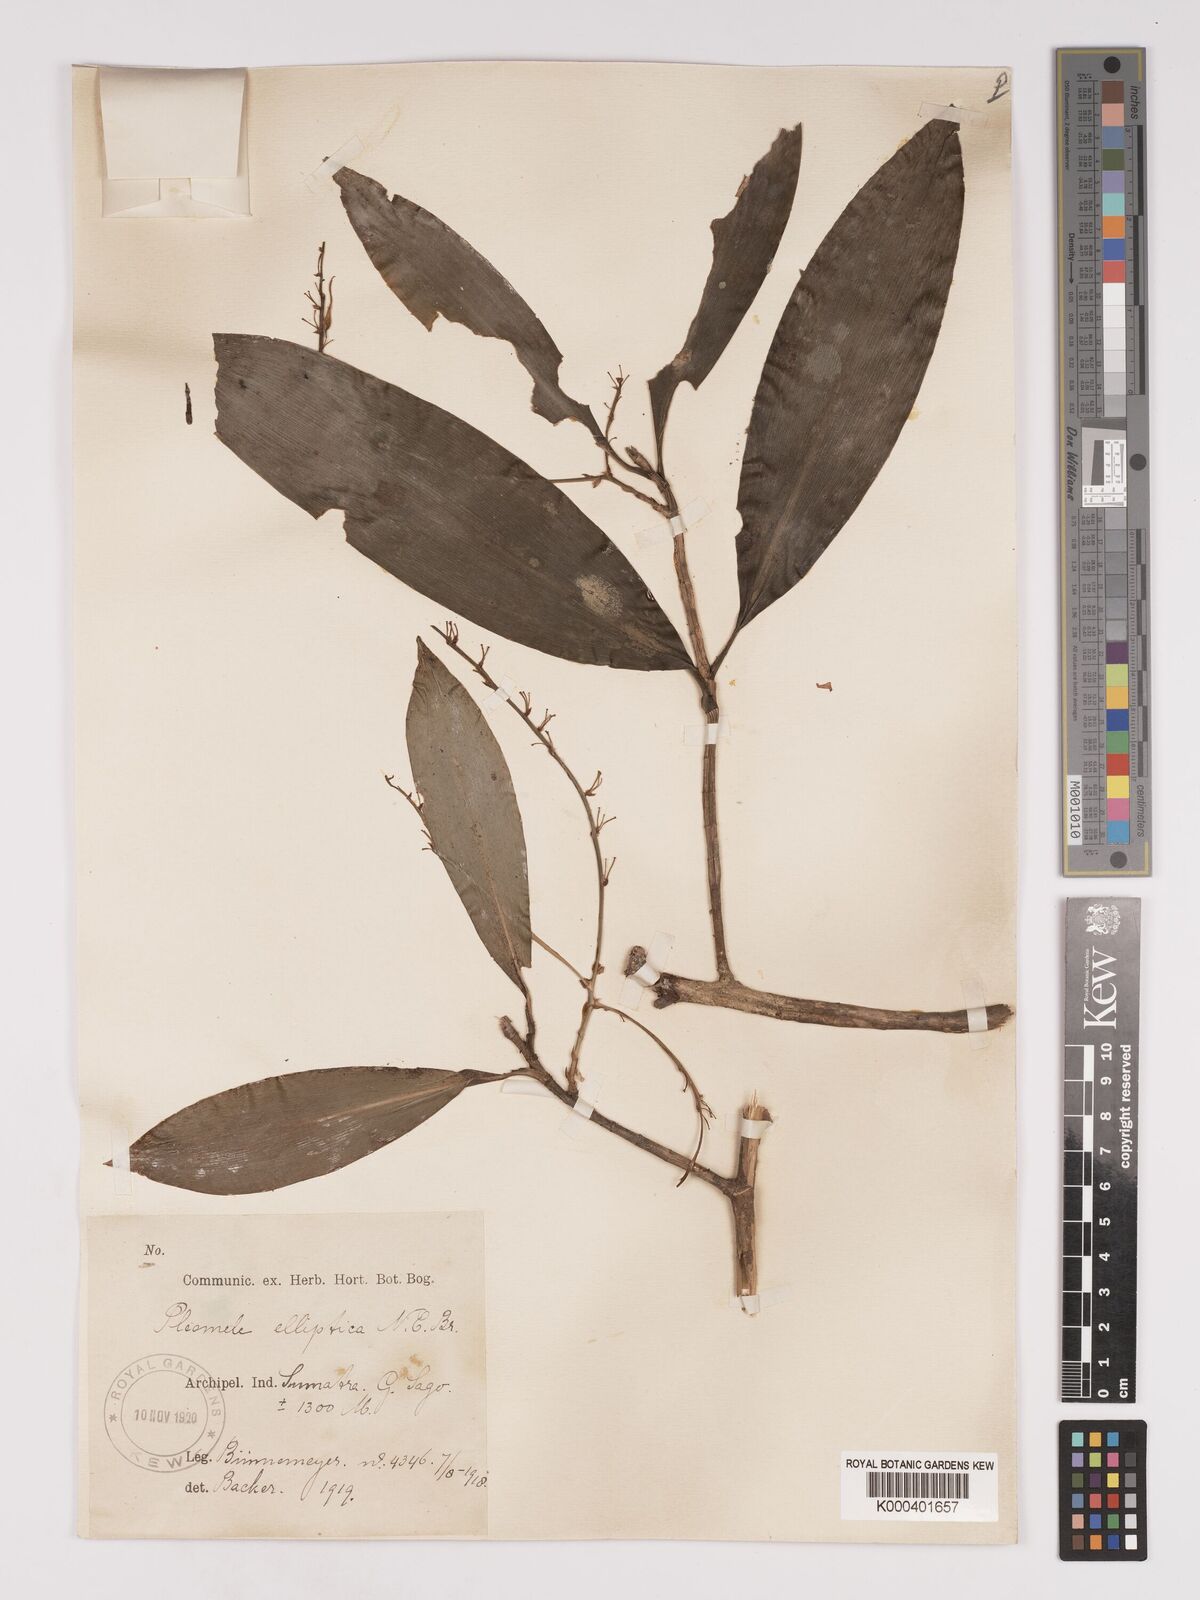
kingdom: Plantae
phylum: Tracheophyta
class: Liliopsida
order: Asparagales
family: Asparagaceae
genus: Dracaena
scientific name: Dracaena elliptica
